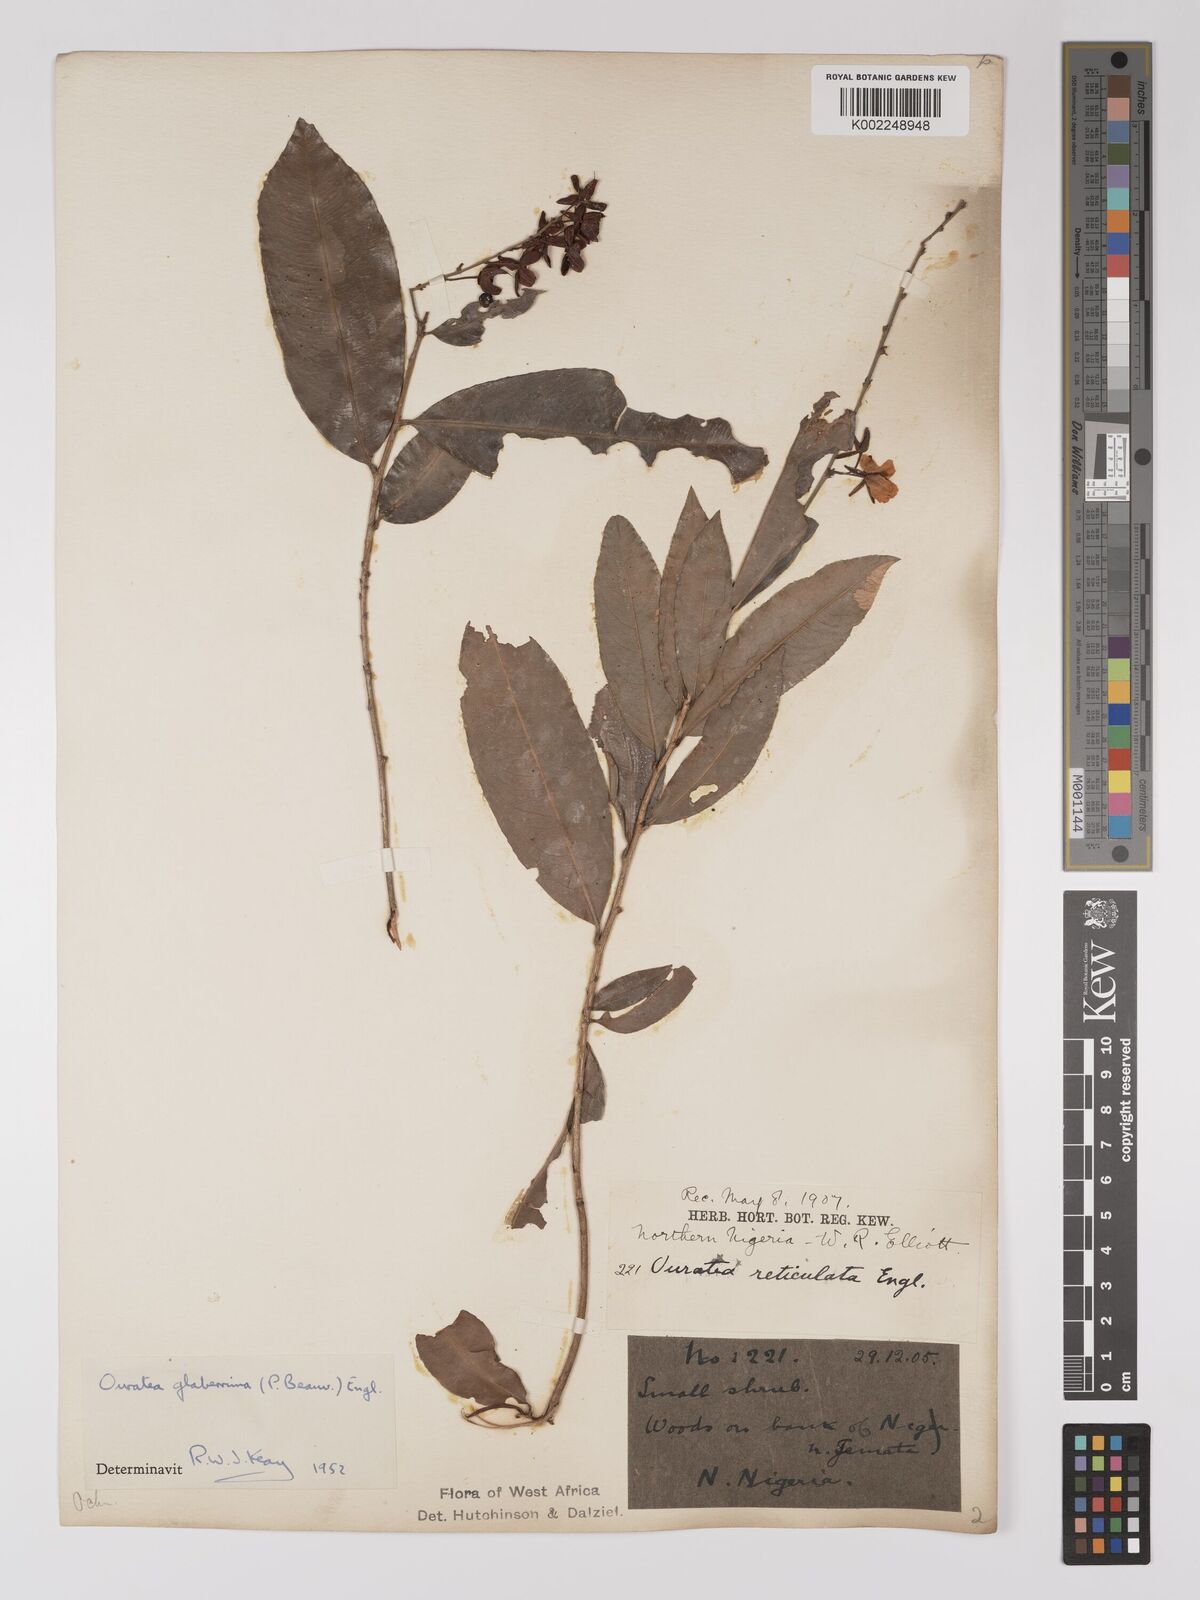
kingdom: Plantae
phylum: Tracheophyta
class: Magnoliopsida
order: Malpighiales
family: Ochnaceae
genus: Campylospermum
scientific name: Campylospermum glaberrimum
